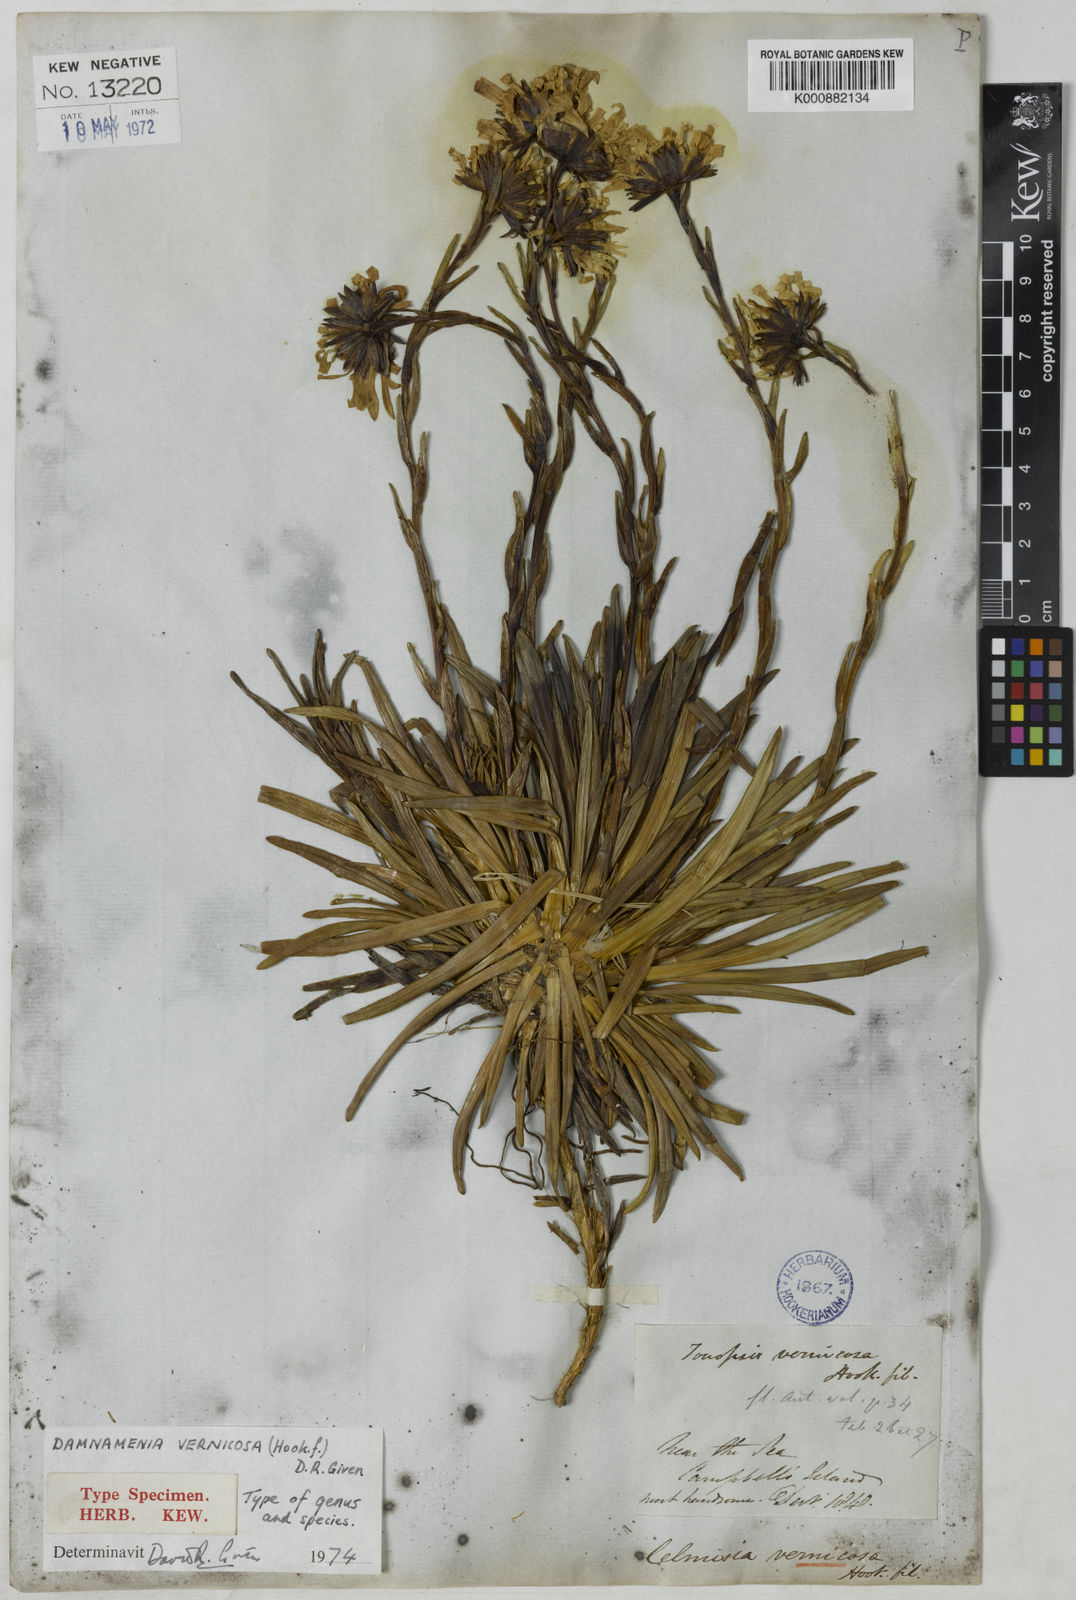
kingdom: Plantae
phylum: Tracheophyta
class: Magnoliopsida
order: Asterales
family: Asteraceae
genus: Damnamenia
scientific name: Damnamenia vernicosa
